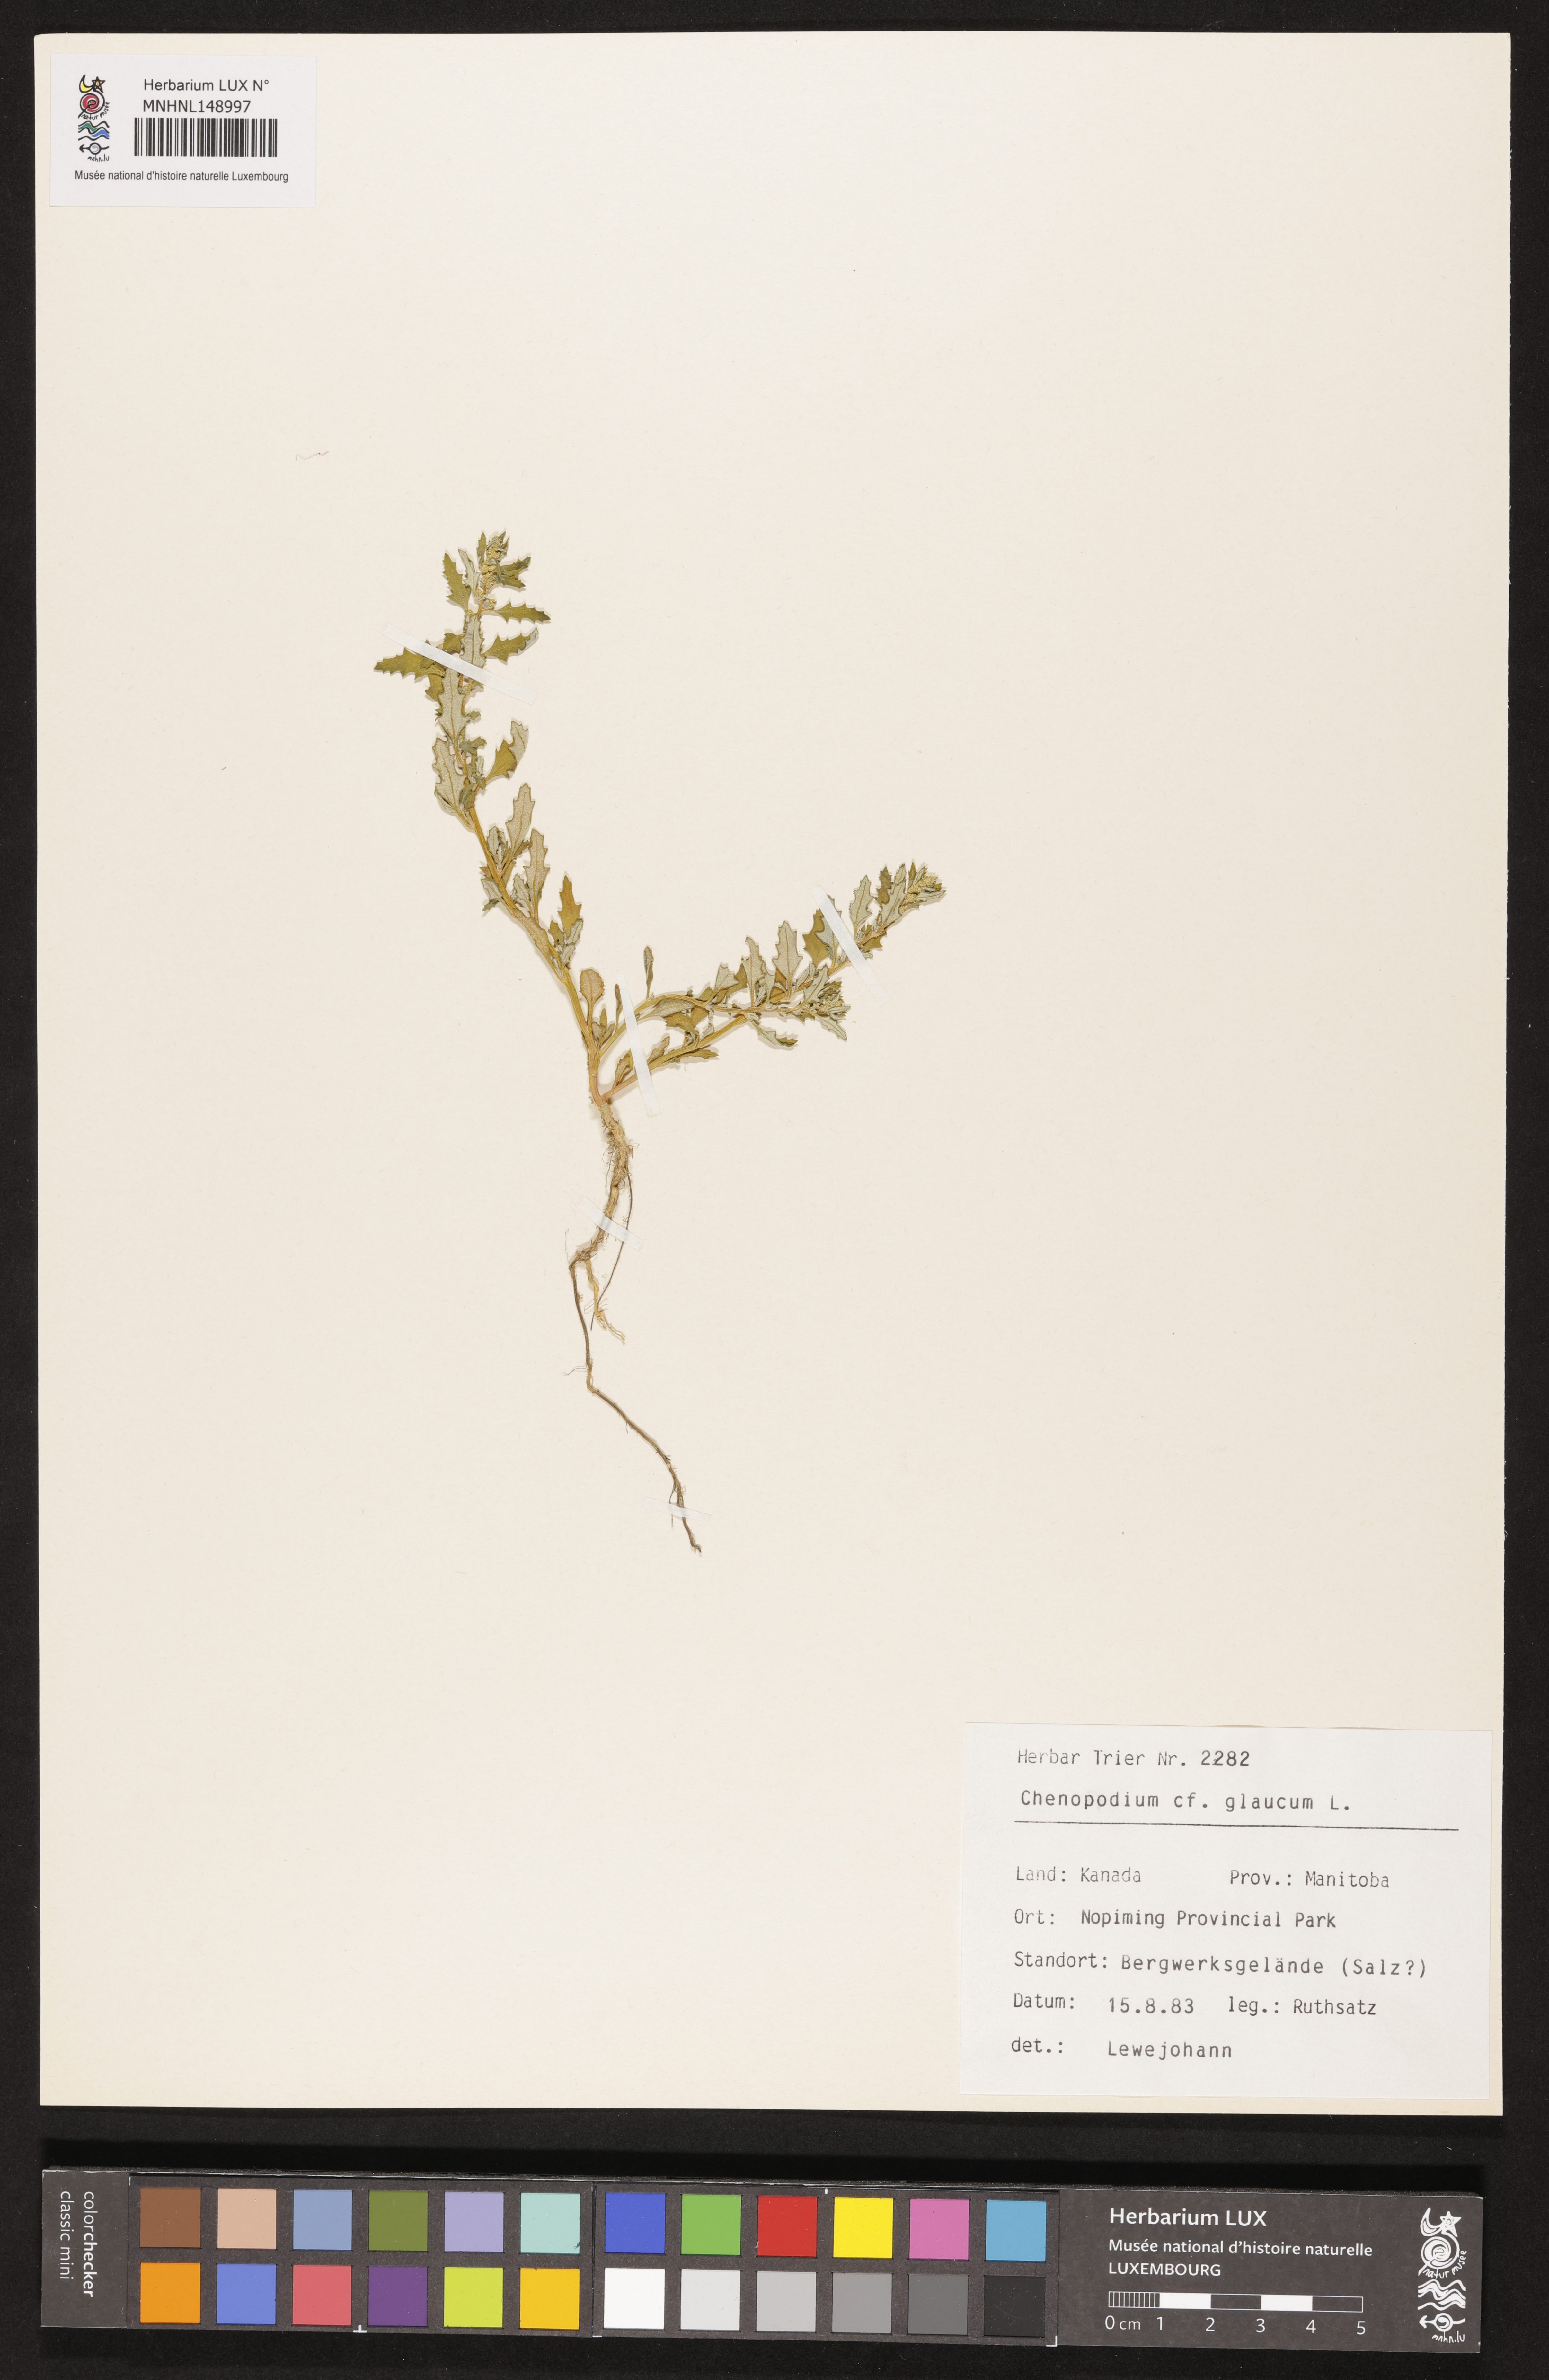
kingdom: Plantae
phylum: Tracheophyta
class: Magnoliopsida
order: Caryophyllales
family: Amaranthaceae
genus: Oxybasis
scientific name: Oxybasis glauca
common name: Glaucous goosefoot
